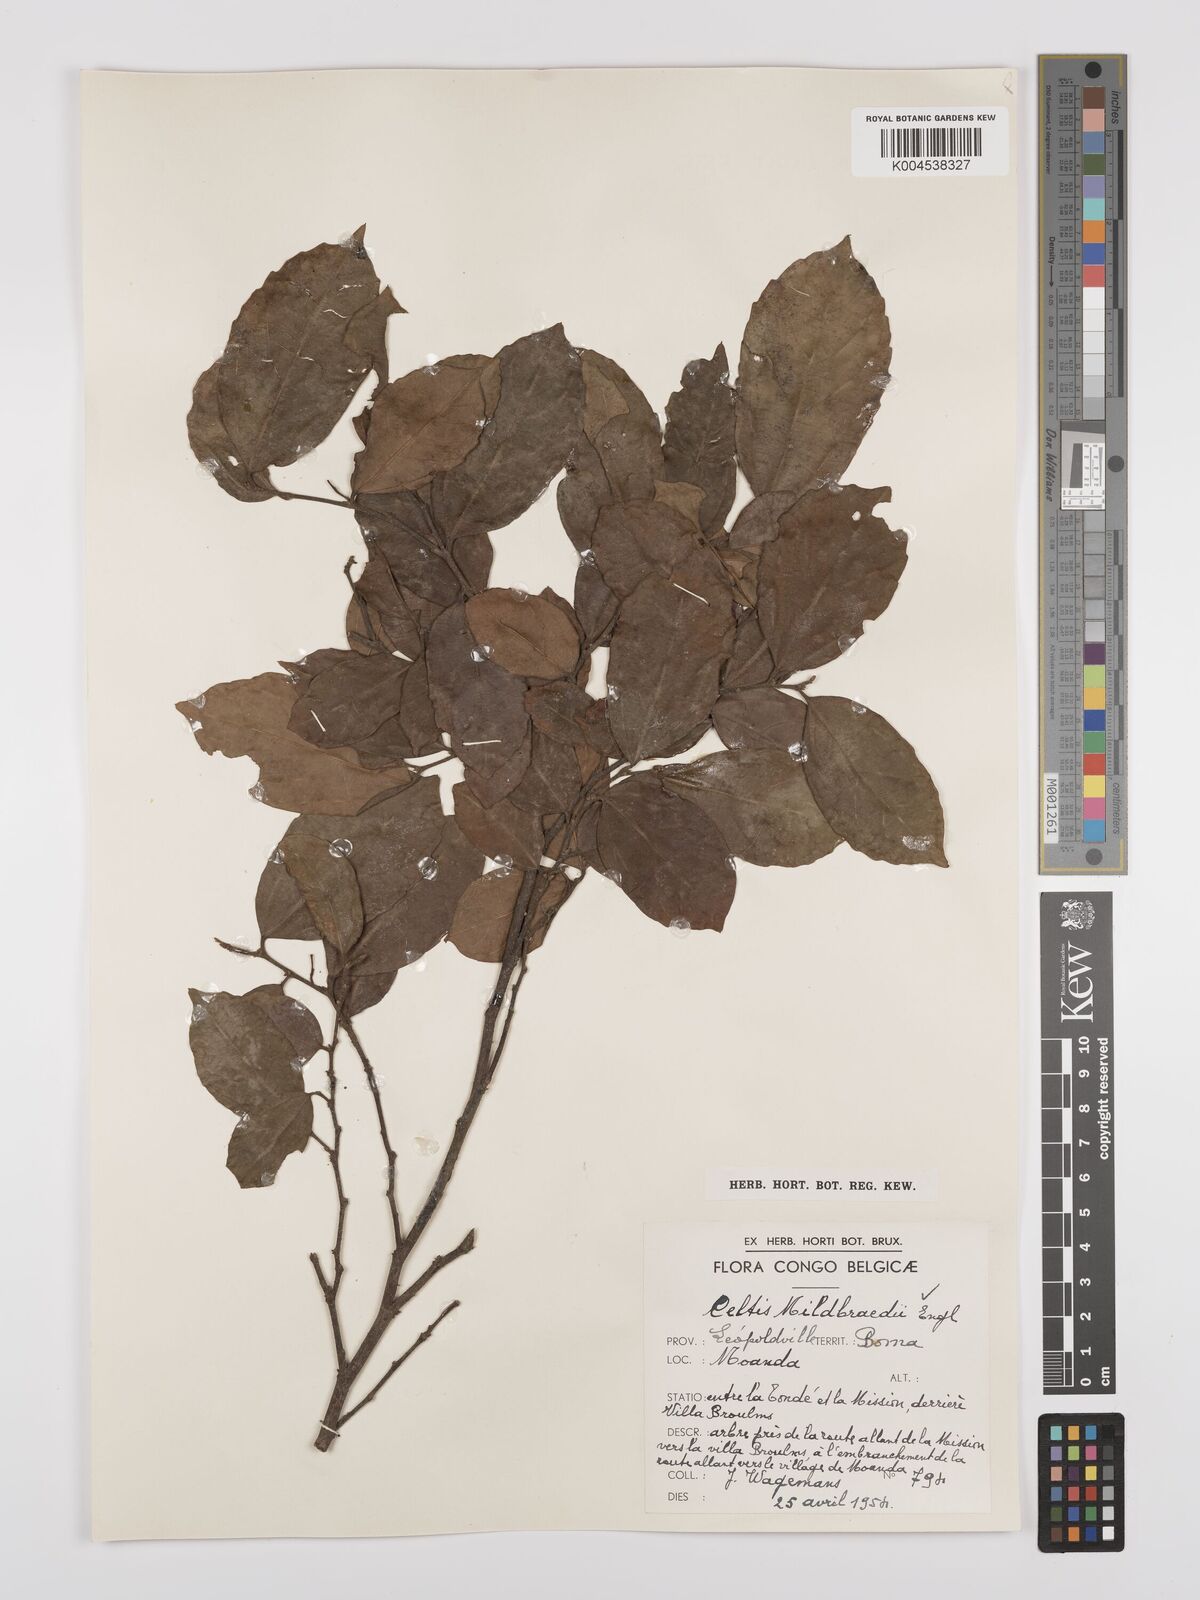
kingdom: Plantae
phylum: Tracheophyta
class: Magnoliopsida
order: Rosales
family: Cannabaceae
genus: Celtis
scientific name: Celtis mildbraedii
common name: Red-fruited stinkwood
